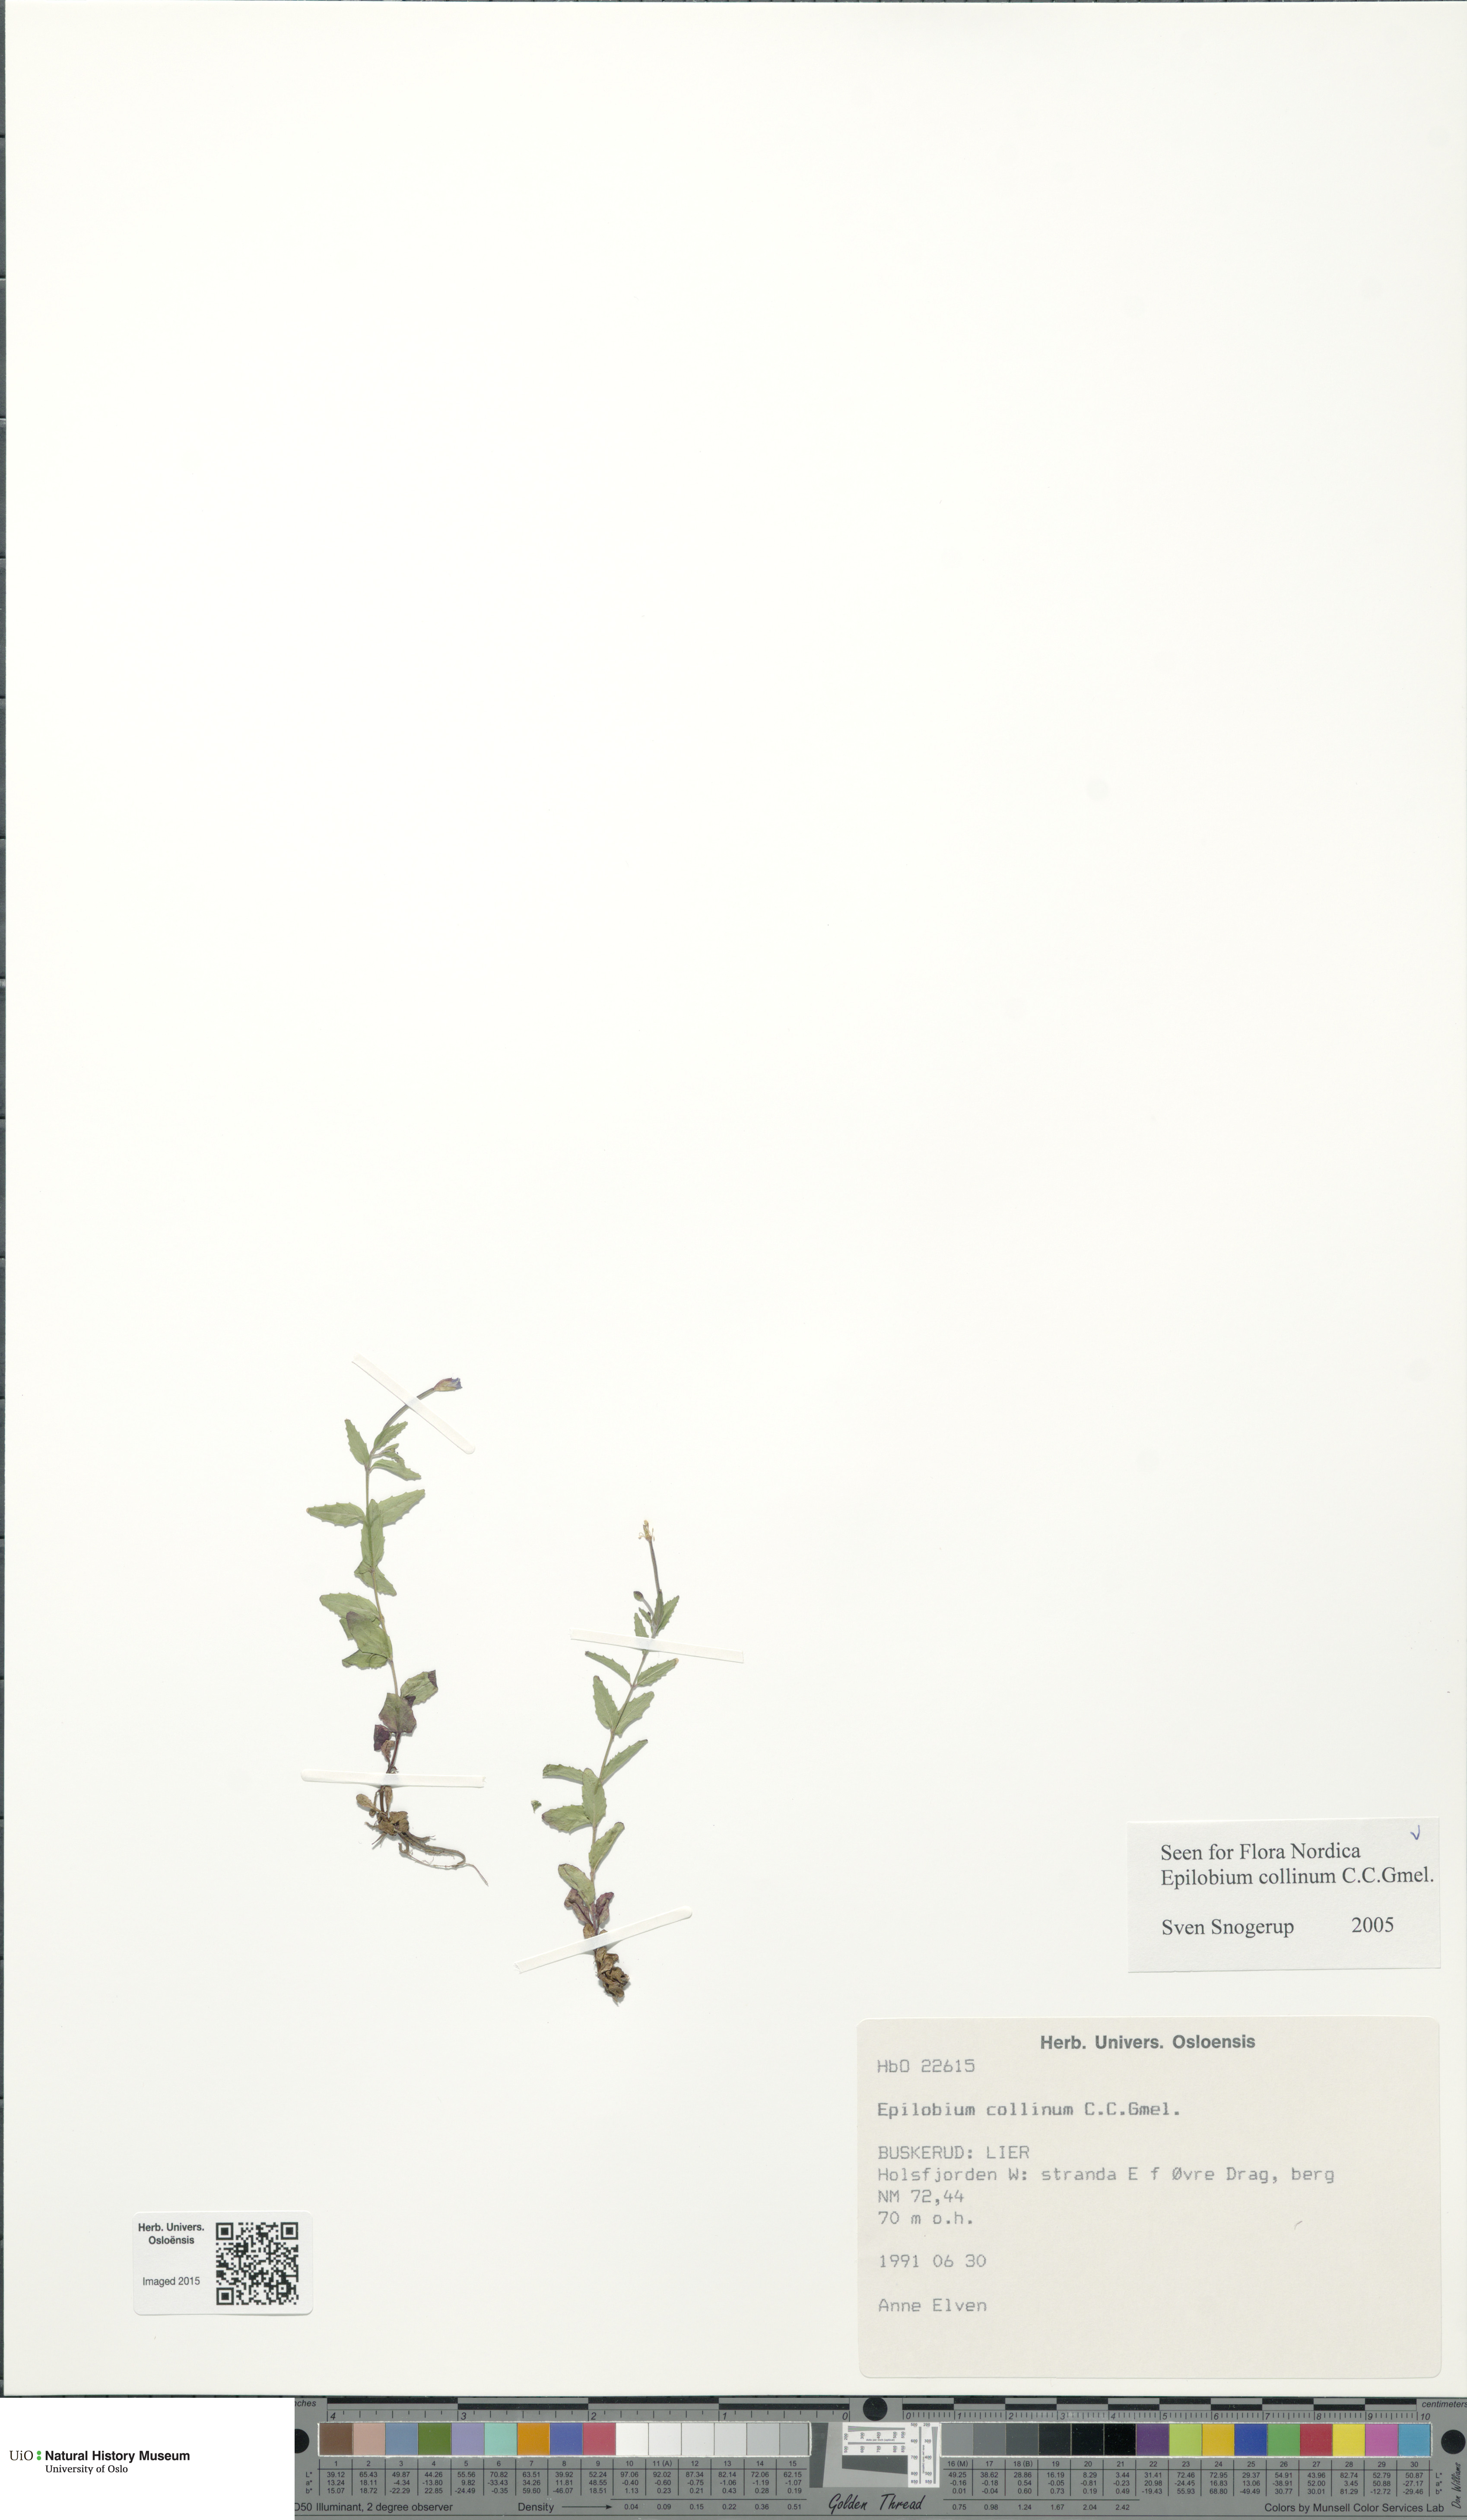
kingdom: Plantae
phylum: Tracheophyta
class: Magnoliopsida
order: Myrtales
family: Onagraceae
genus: Epilobium
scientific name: Epilobium collinum
